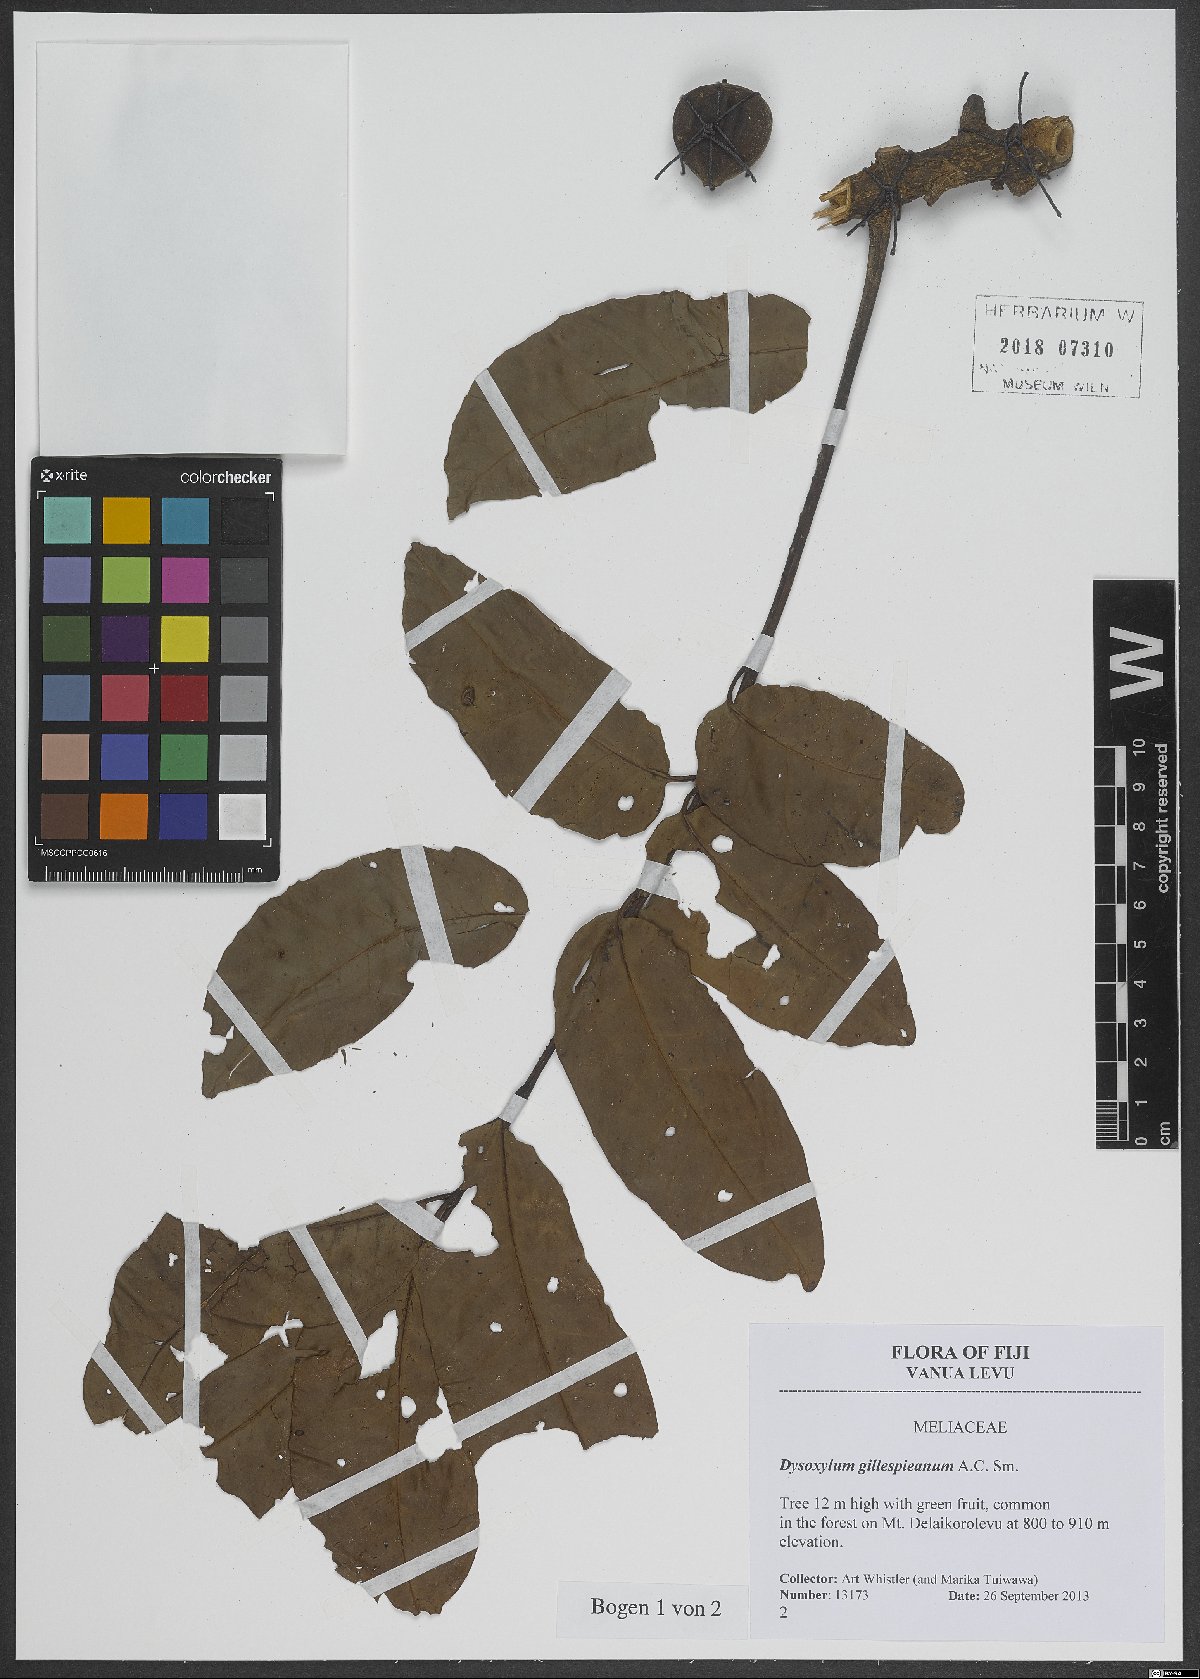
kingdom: Plantae
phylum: Tracheophyta
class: Magnoliopsida
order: Sapindales
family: Meliaceae
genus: Epicharis
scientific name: Epicharis gillespieana
